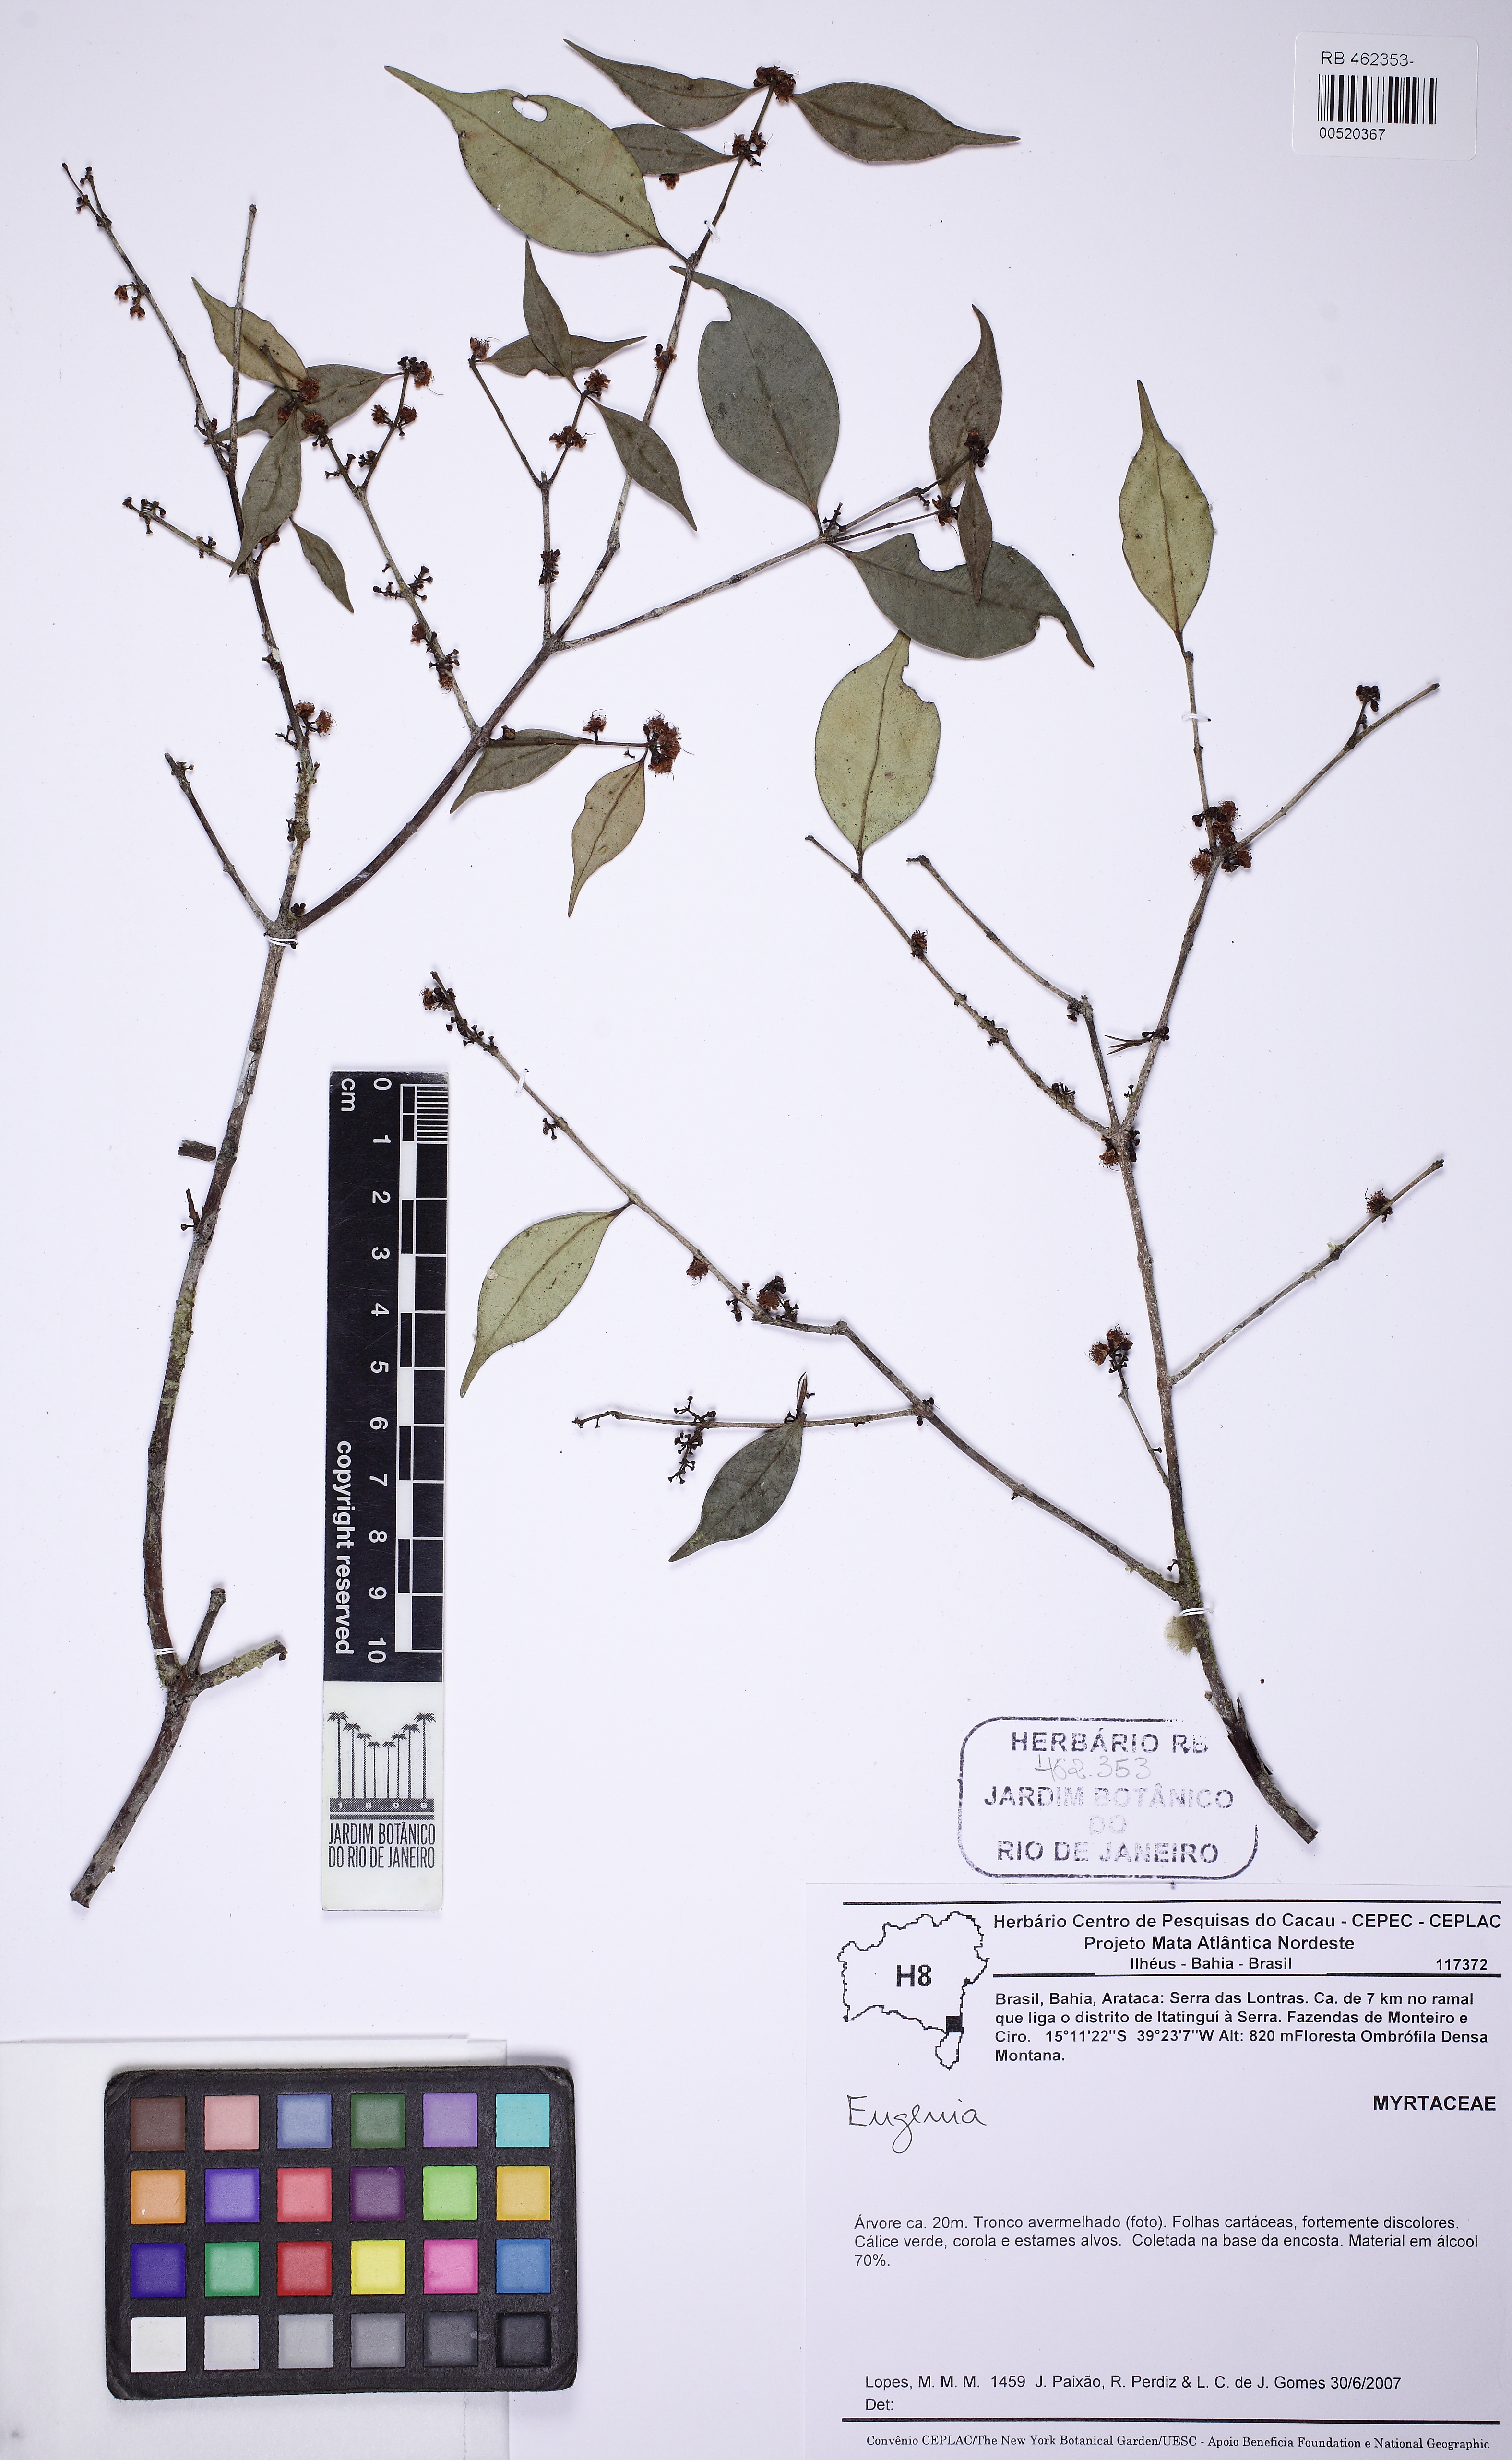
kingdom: Plantae
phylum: Tracheophyta
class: Magnoliopsida
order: Myrtales
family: Myrtaceae
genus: Eugenia
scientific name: Eugenia
